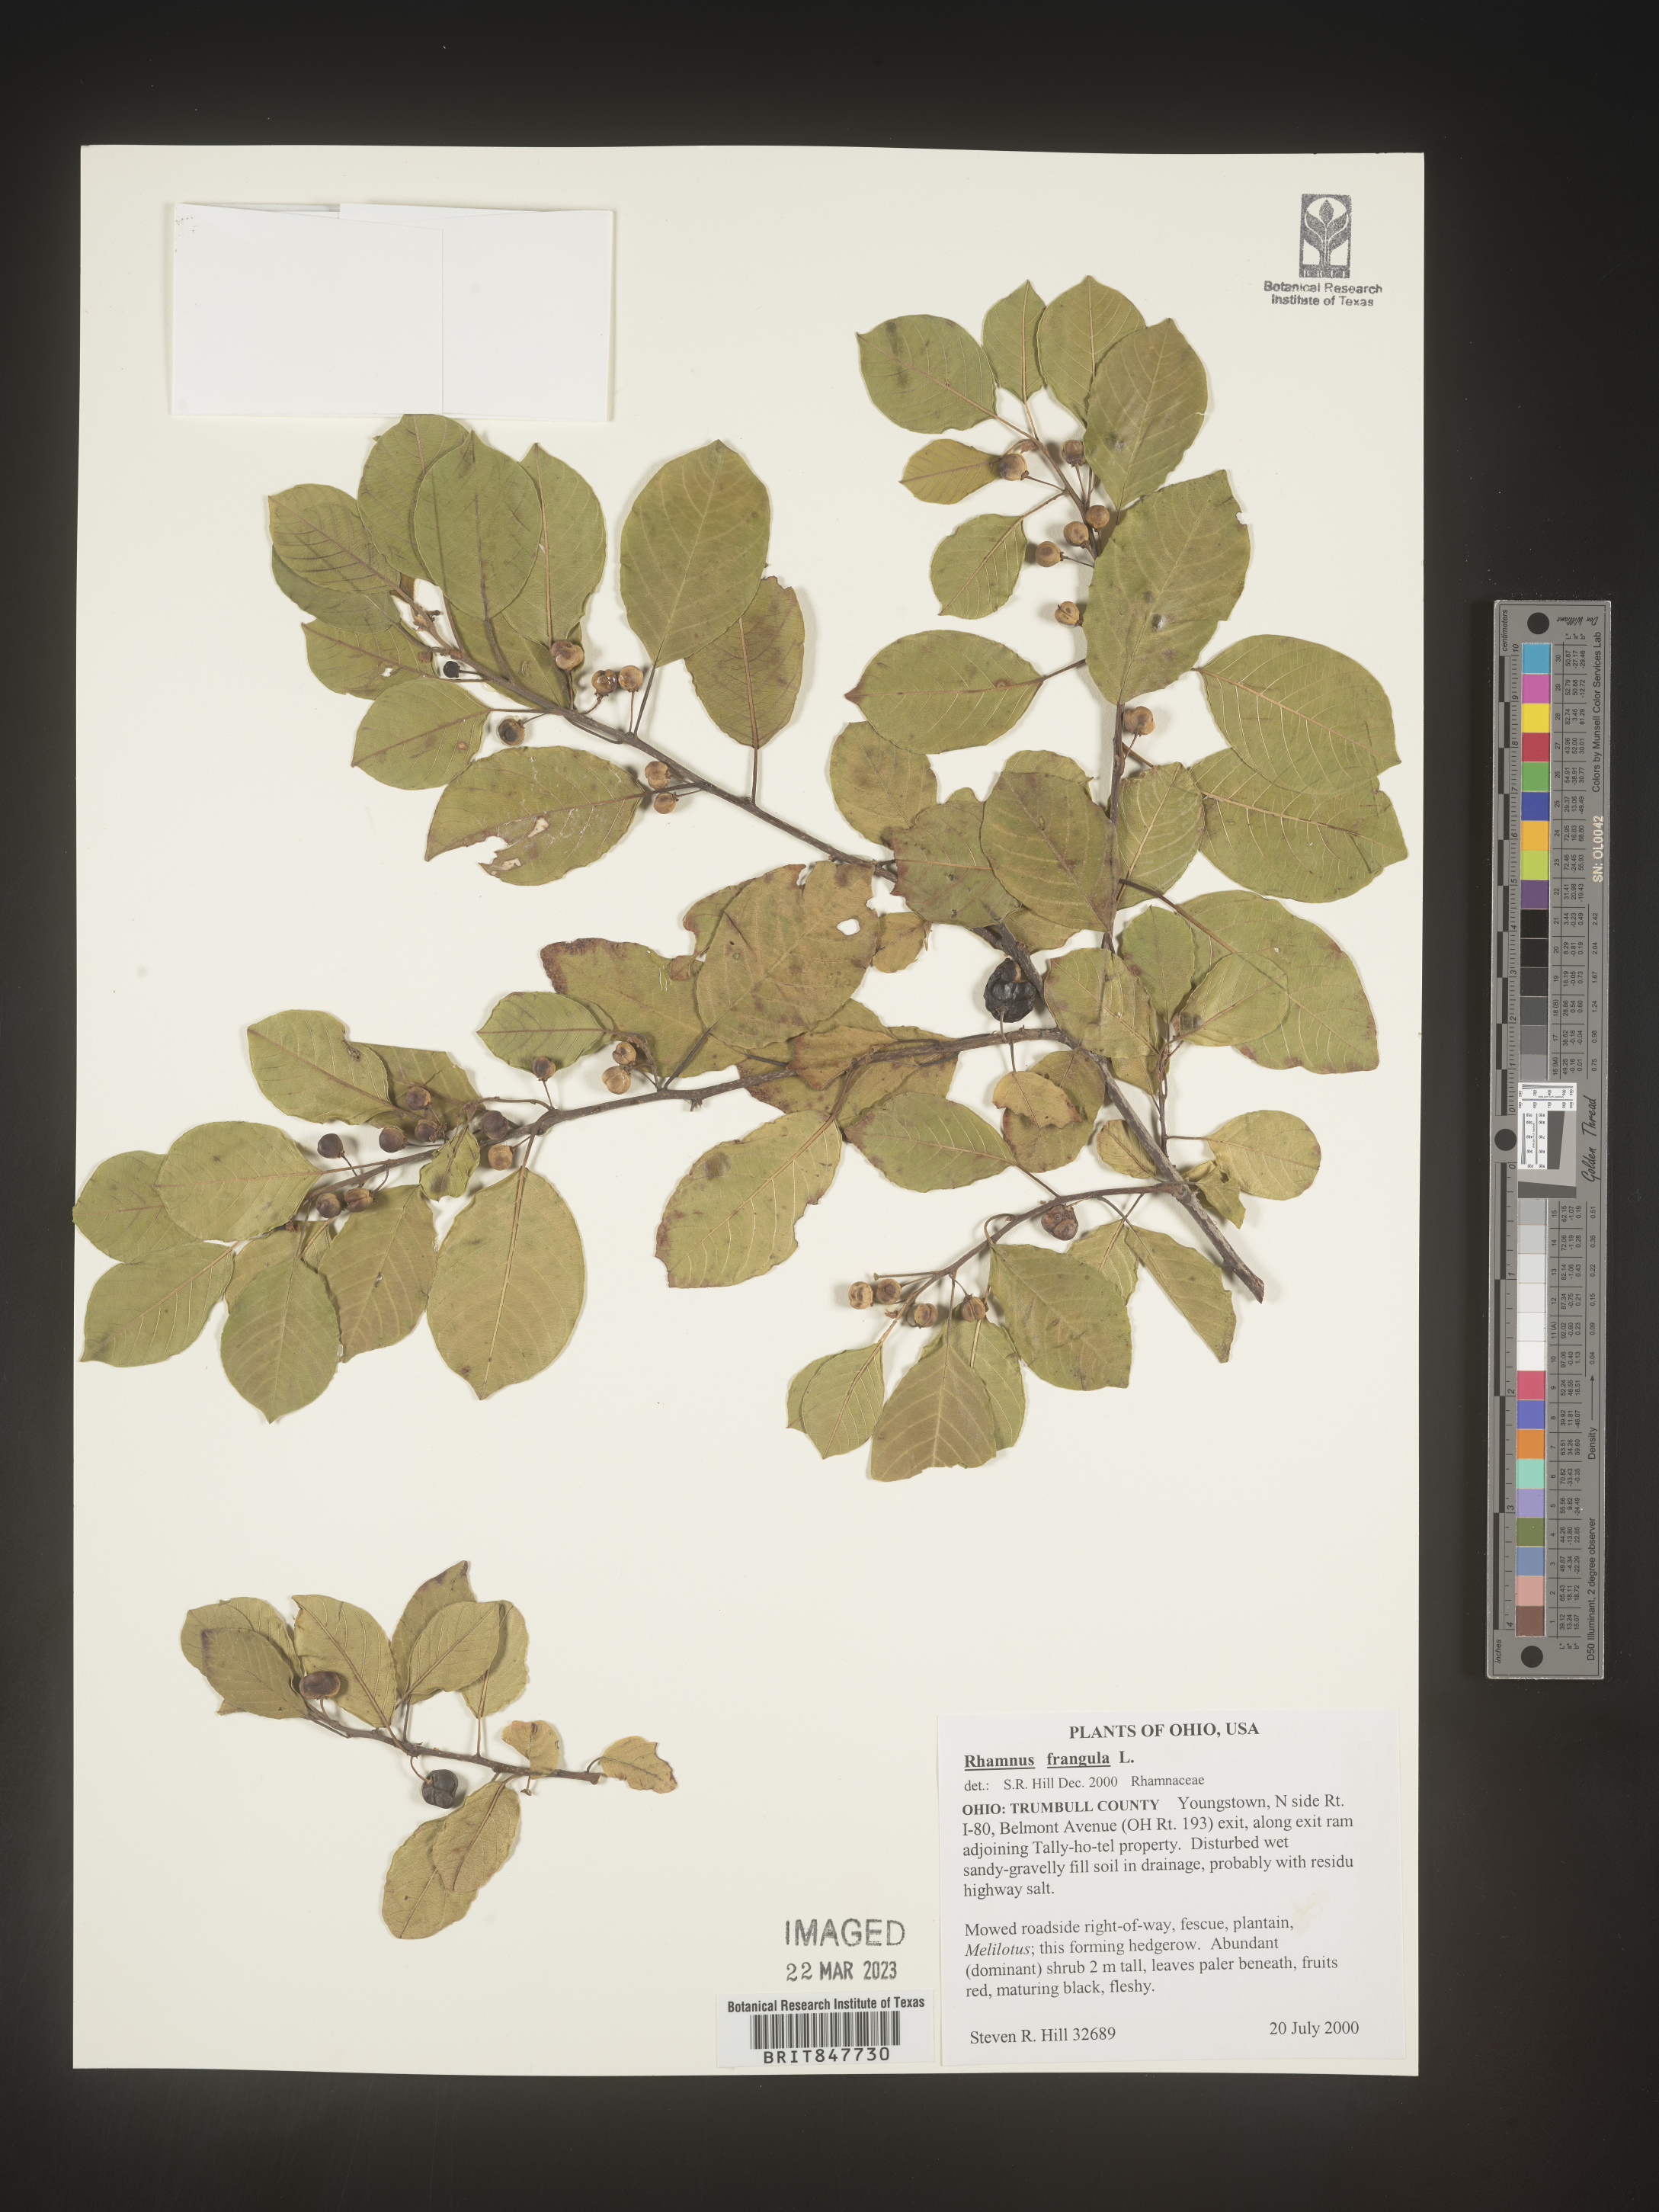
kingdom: Plantae
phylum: Tracheophyta
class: Magnoliopsida
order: Rosales
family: Rhamnaceae
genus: Frangula
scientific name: Frangula alnus
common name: Alder buckthorn
